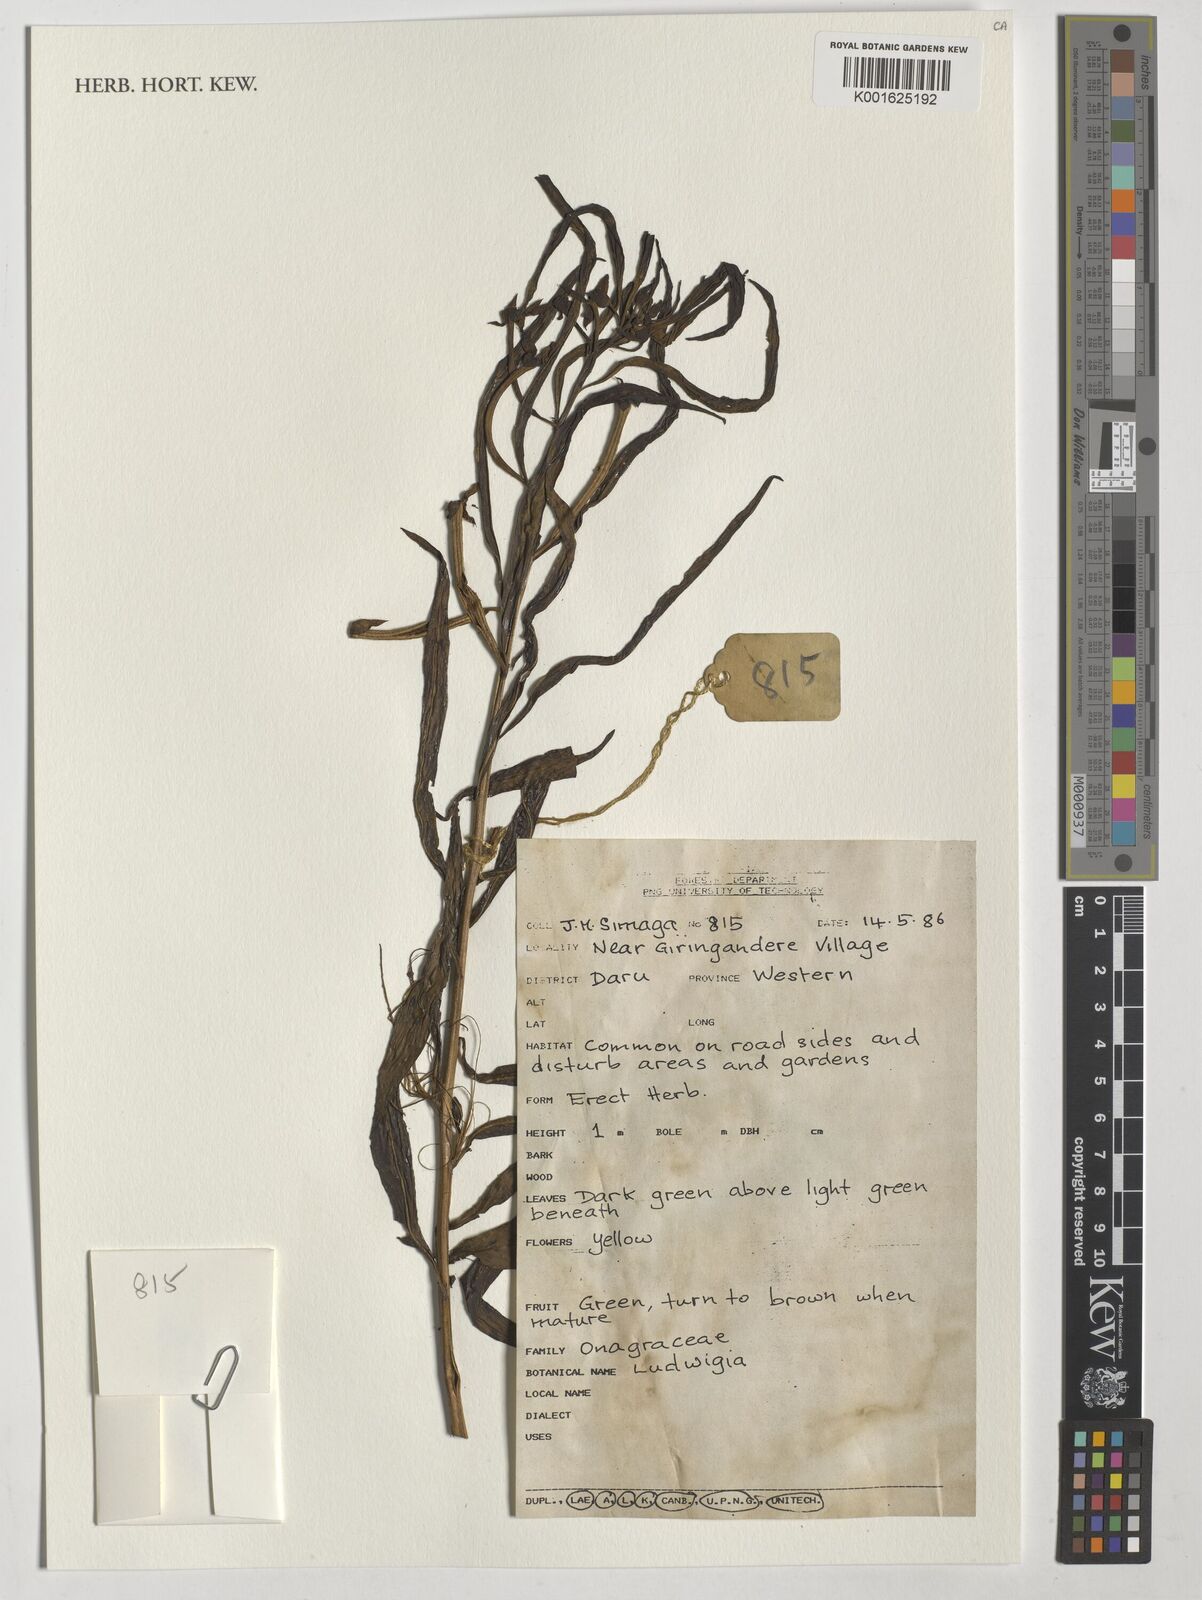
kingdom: Plantae
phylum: Tracheophyta
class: Magnoliopsida
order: Myrtales
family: Onagraceae
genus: Ludwigia
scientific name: Ludwigia
